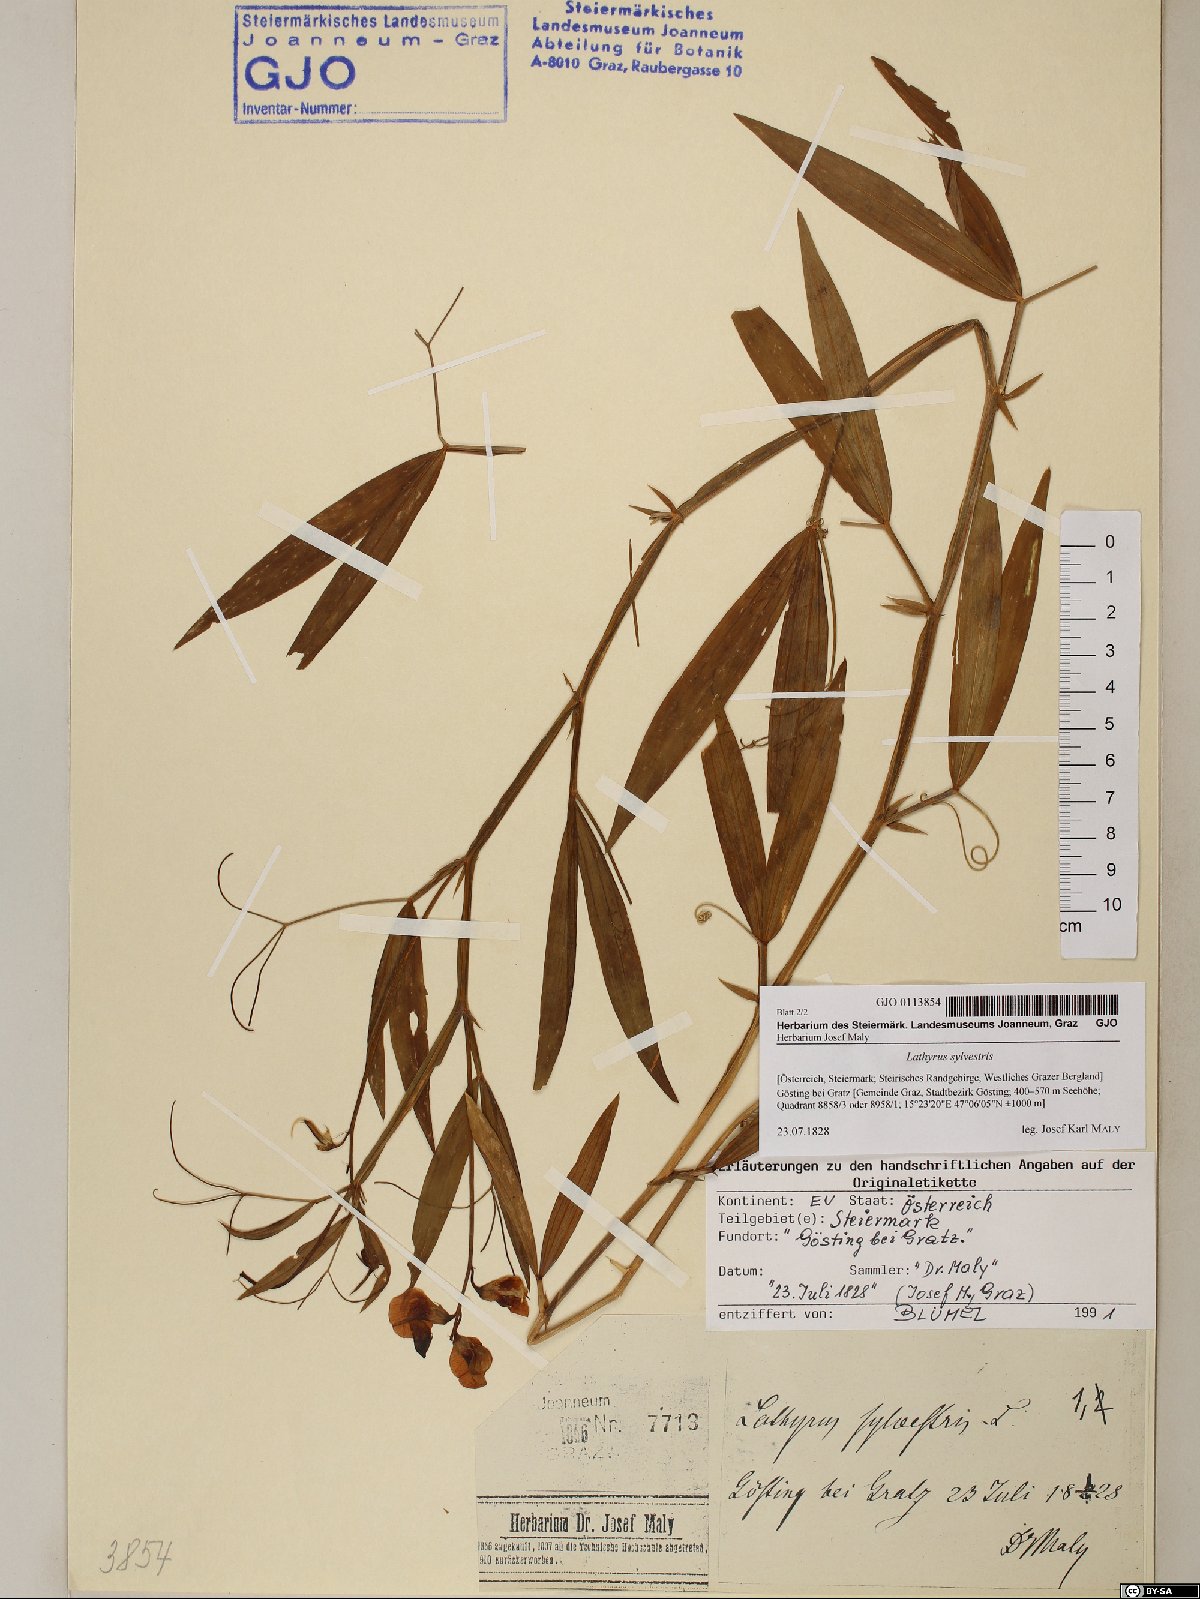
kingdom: Plantae
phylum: Tracheophyta
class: Magnoliopsida
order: Fabales
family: Fabaceae
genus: Lathyrus
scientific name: Lathyrus sylvestris
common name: Flat pea
